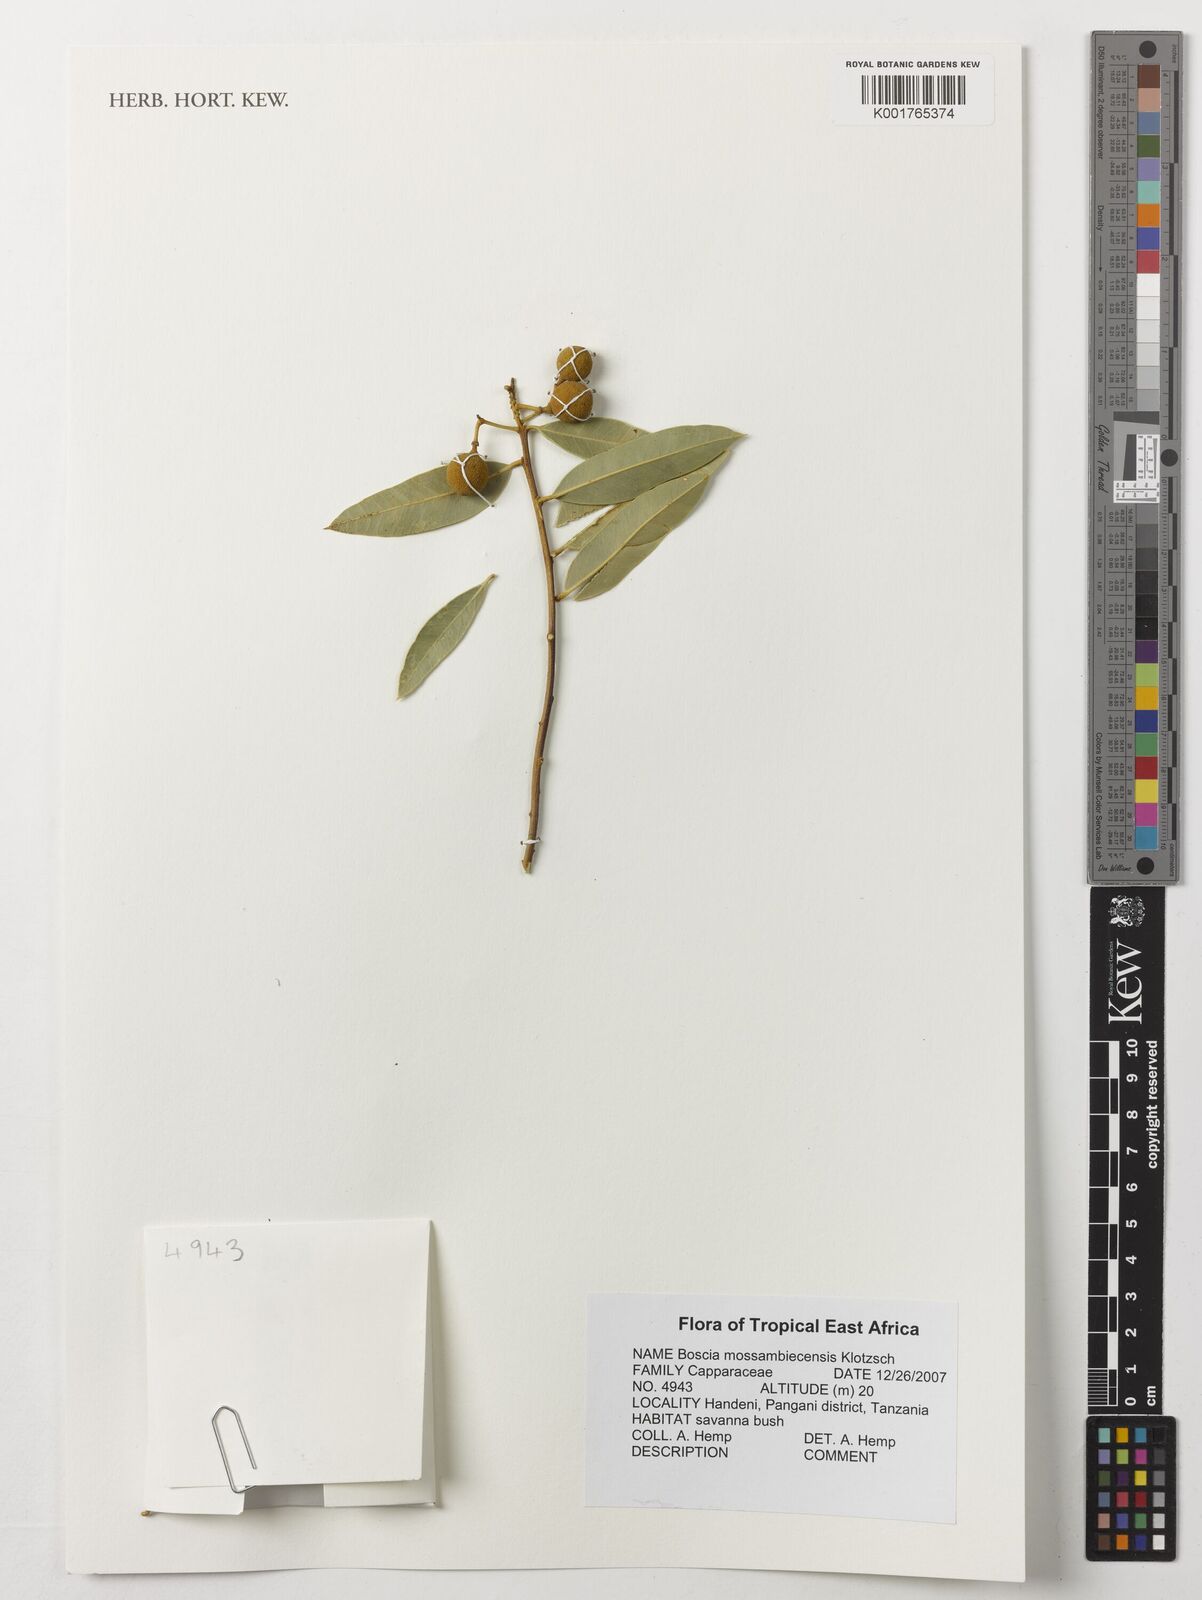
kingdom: Plantae
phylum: Tracheophyta
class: Magnoliopsida
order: Brassicales
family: Capparaceae
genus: Boscia
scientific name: Boscia mossambicensis
